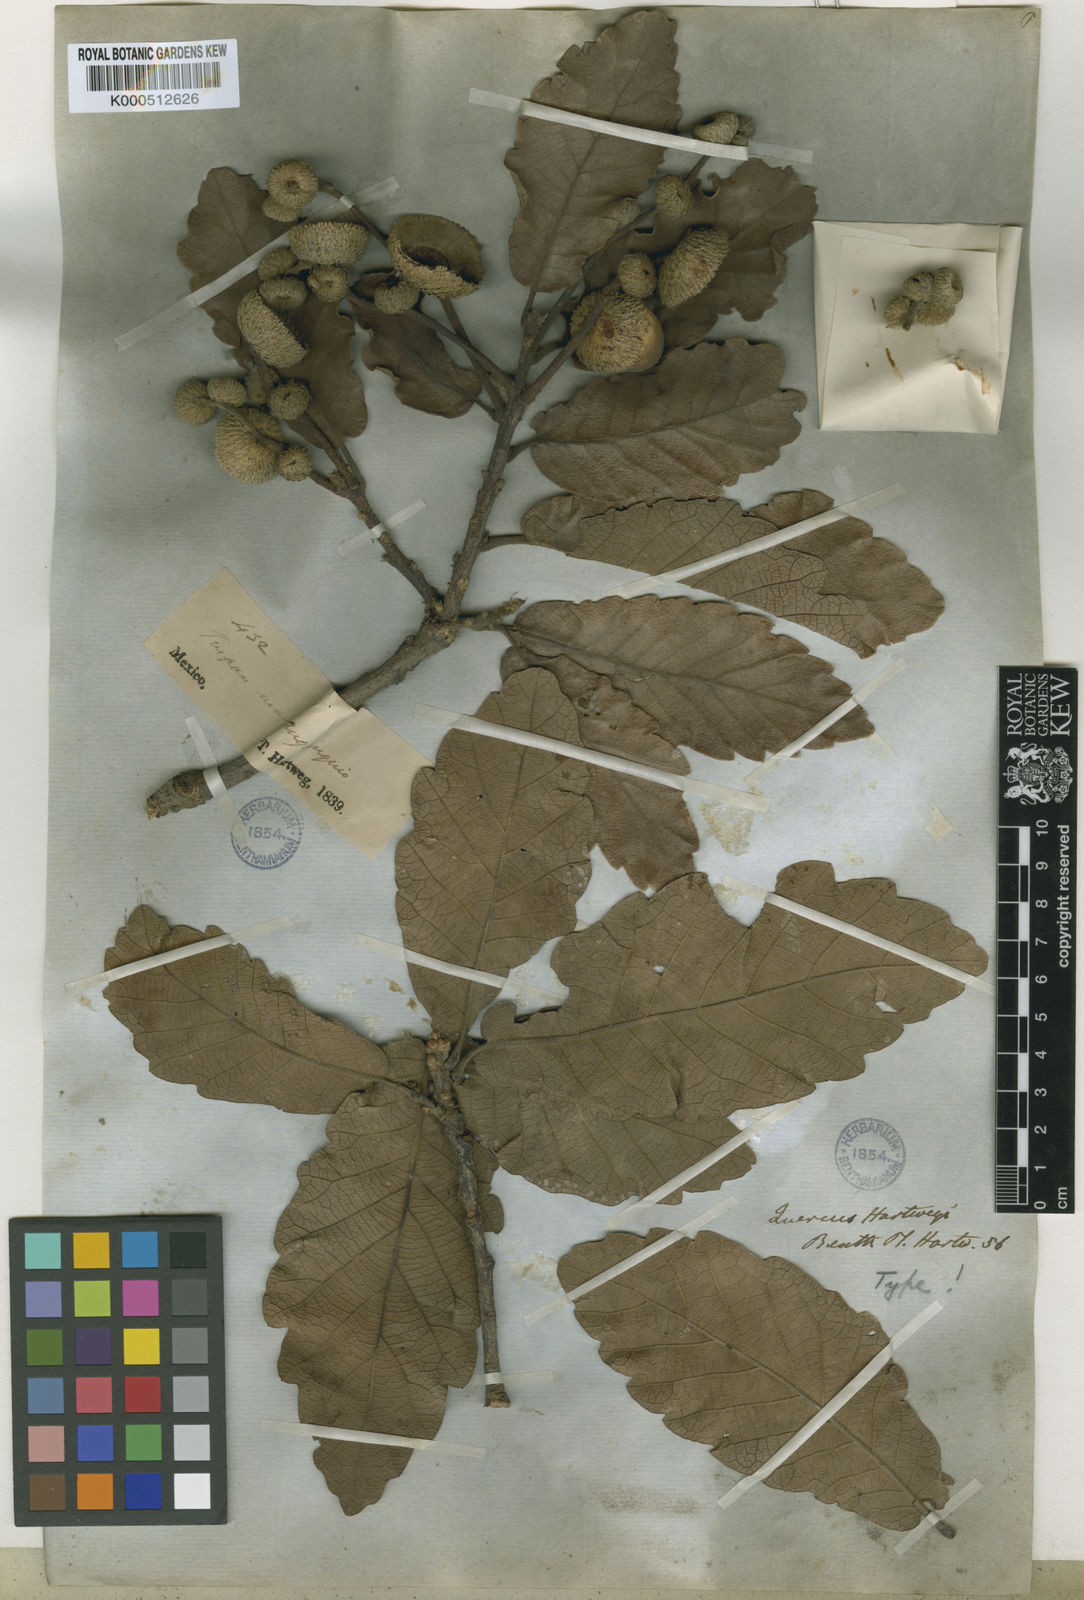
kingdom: Plantae
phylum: Tracheophyta
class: Magnoliopsida
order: Fagales
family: Fagaceae
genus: Quercus
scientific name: Quercus obtusata
